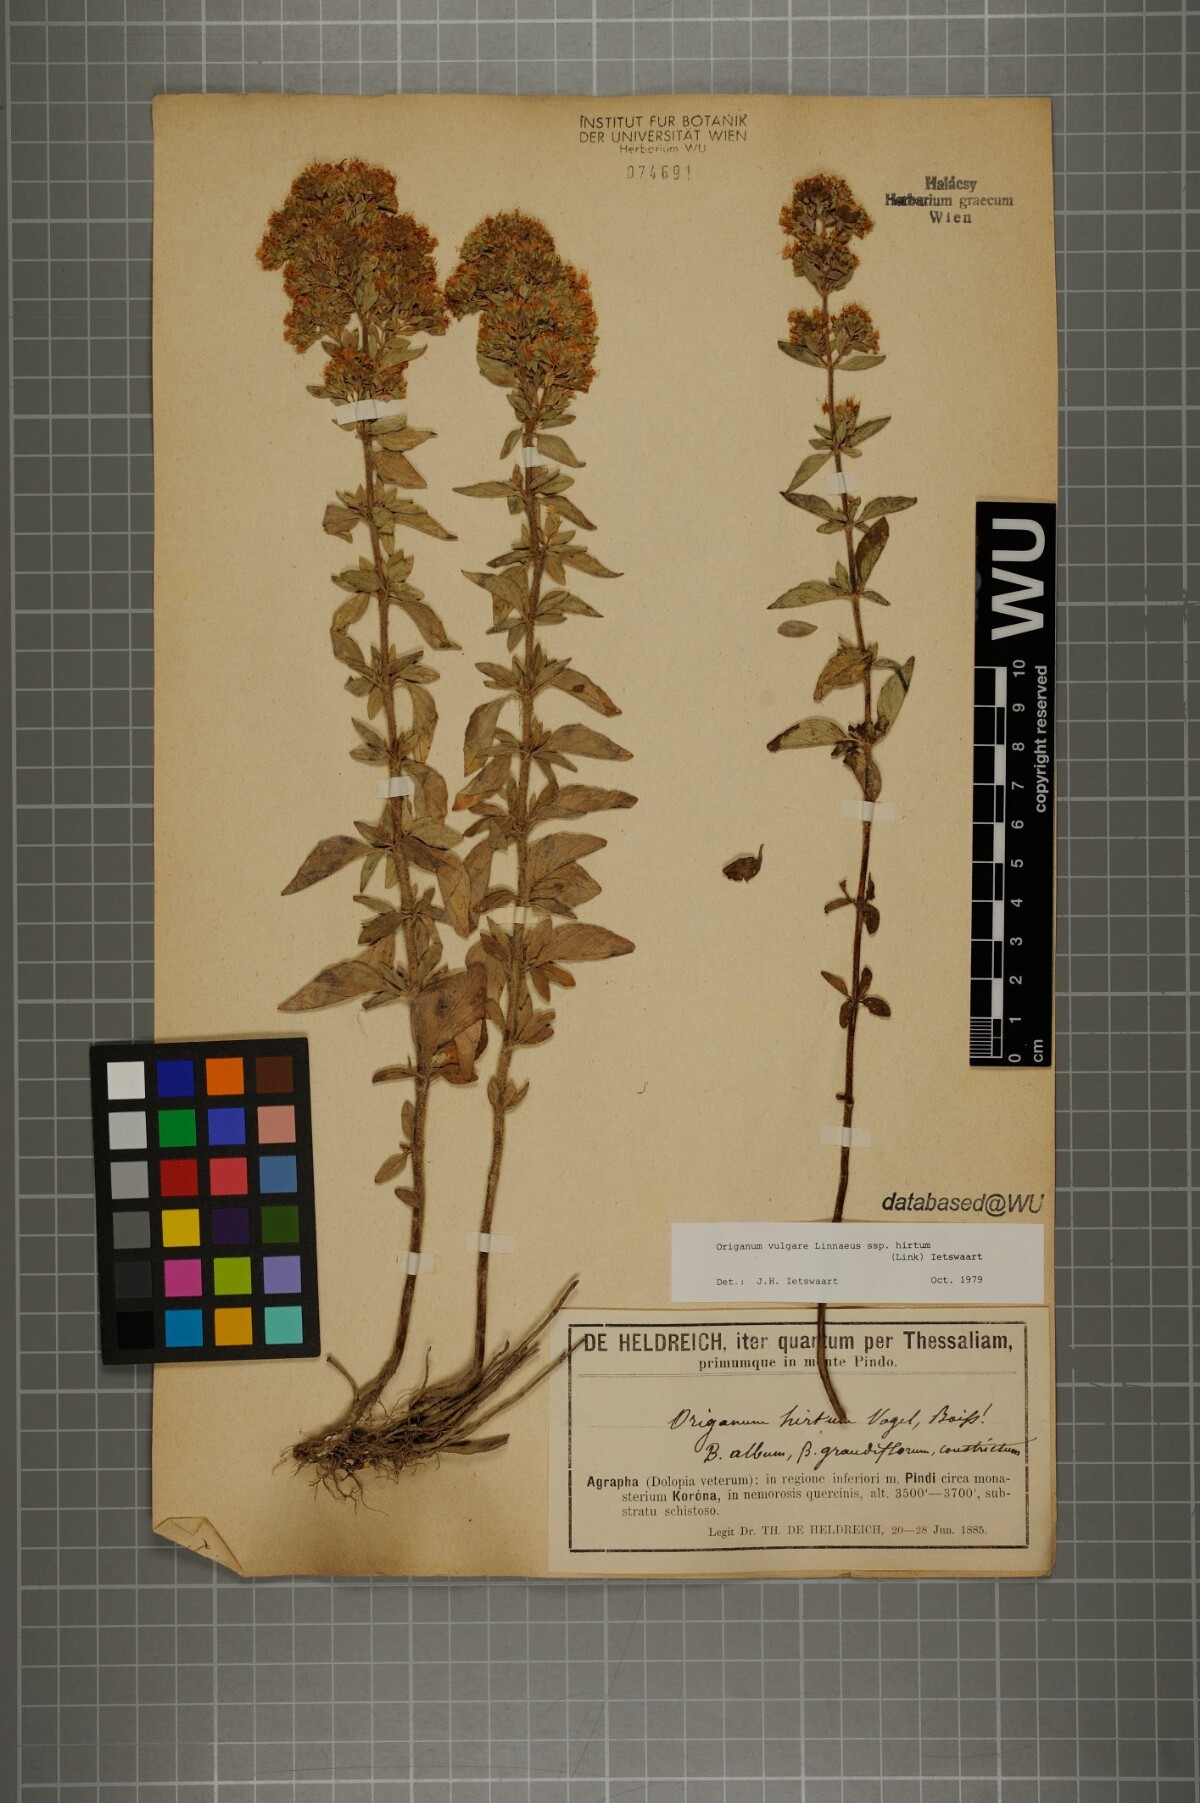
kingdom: Plantae
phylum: Tracheophyta
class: Magnoliopsida
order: Lamiales
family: Lamiaceae
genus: Origanum
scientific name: Origanum vulgare
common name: Wild marjoram
